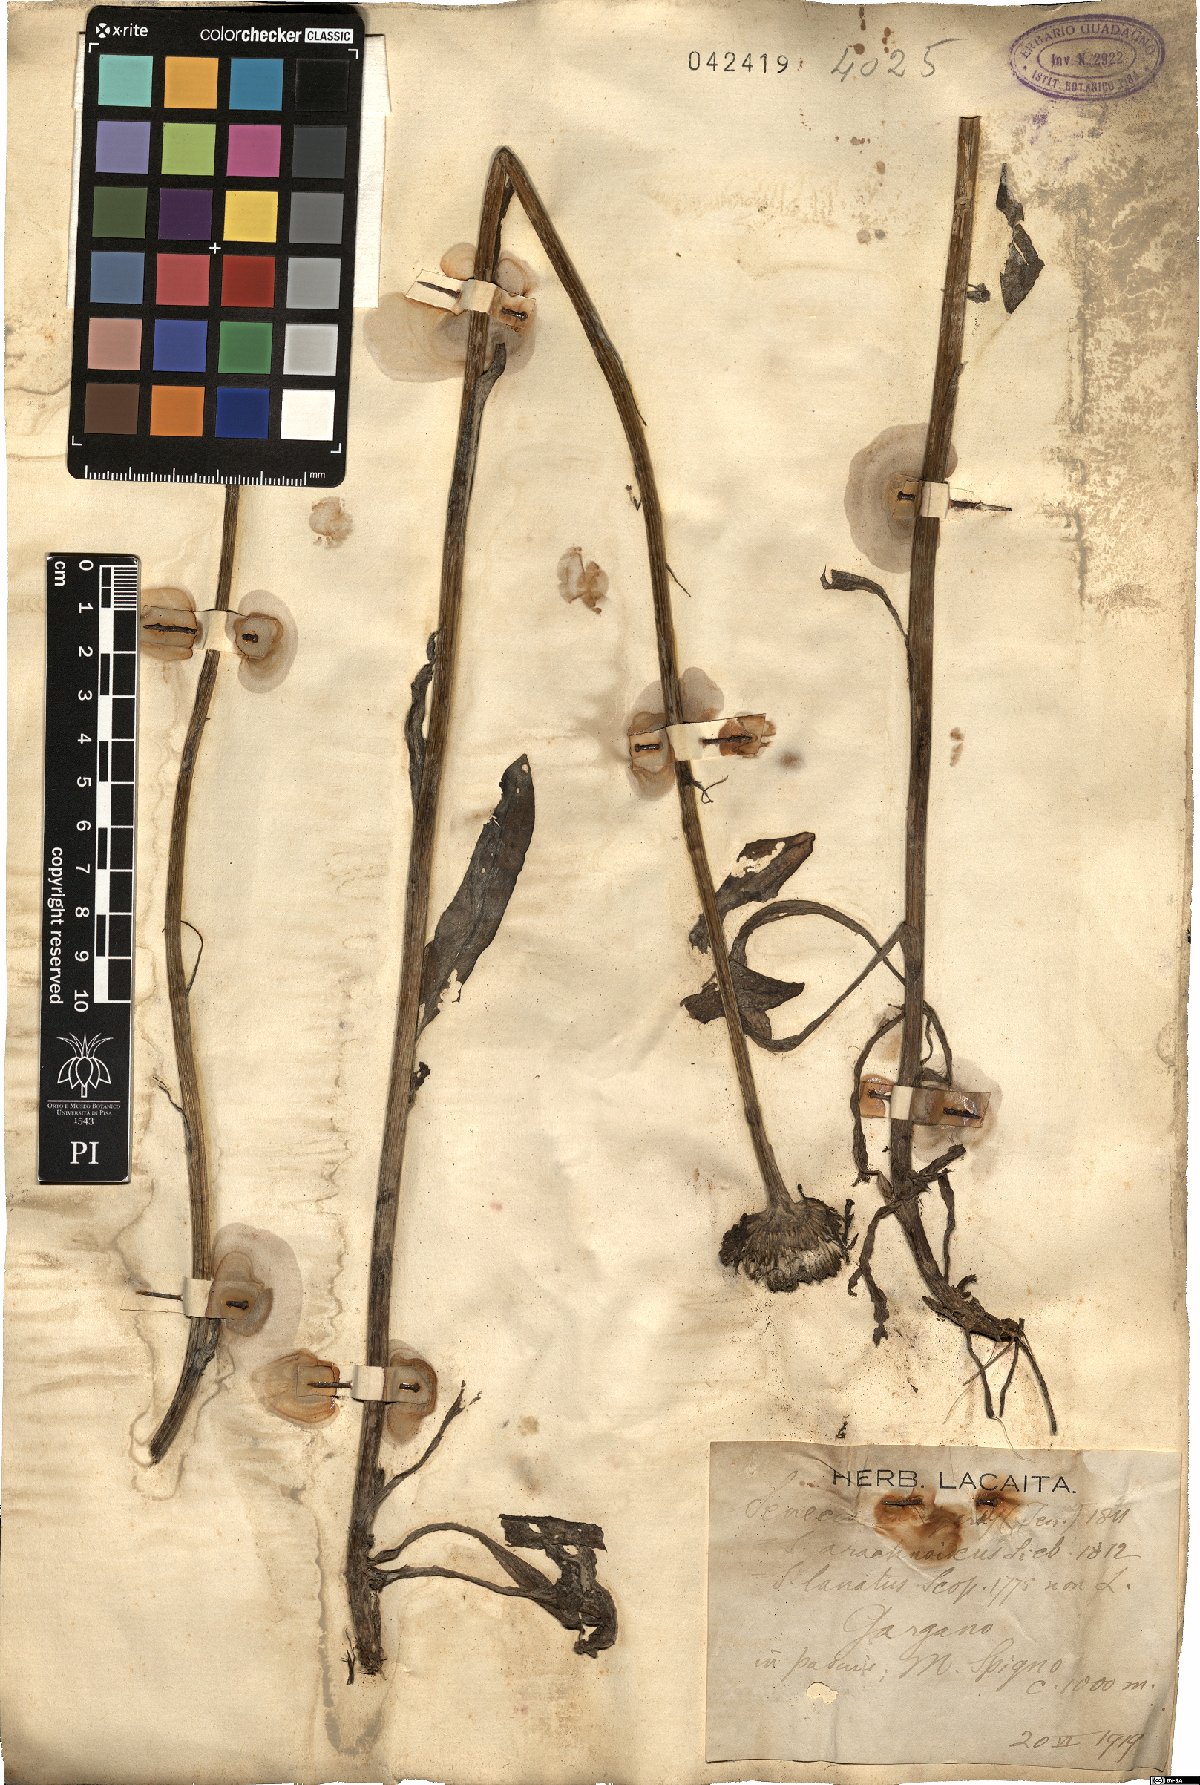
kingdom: Plantae
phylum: Tracheophyta
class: Magnoliopsida
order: Asterales
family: Asteraceae
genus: Senecio
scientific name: Senecio scopolii
